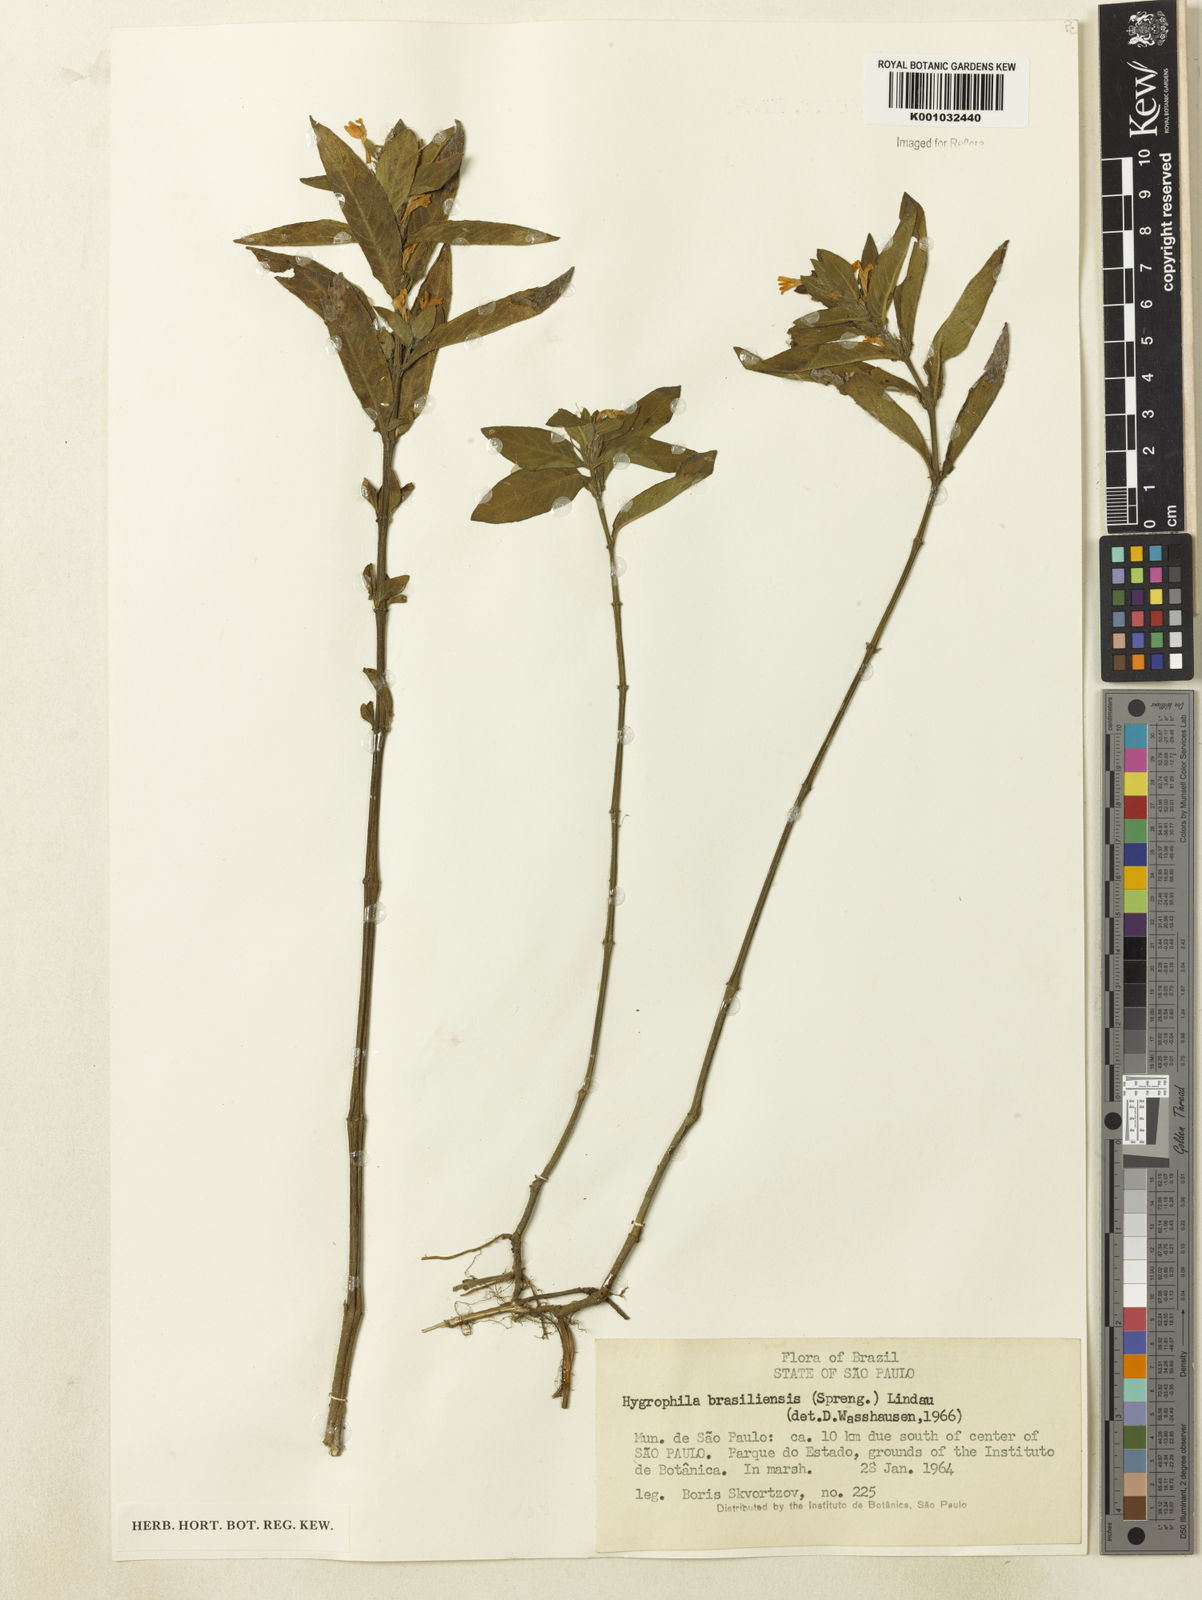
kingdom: Plantae
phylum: Tracheophyta
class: Magnoliopsida
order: Lamiales
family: Acanthaceae
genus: Hygrophila
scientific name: Hygrophila costata
